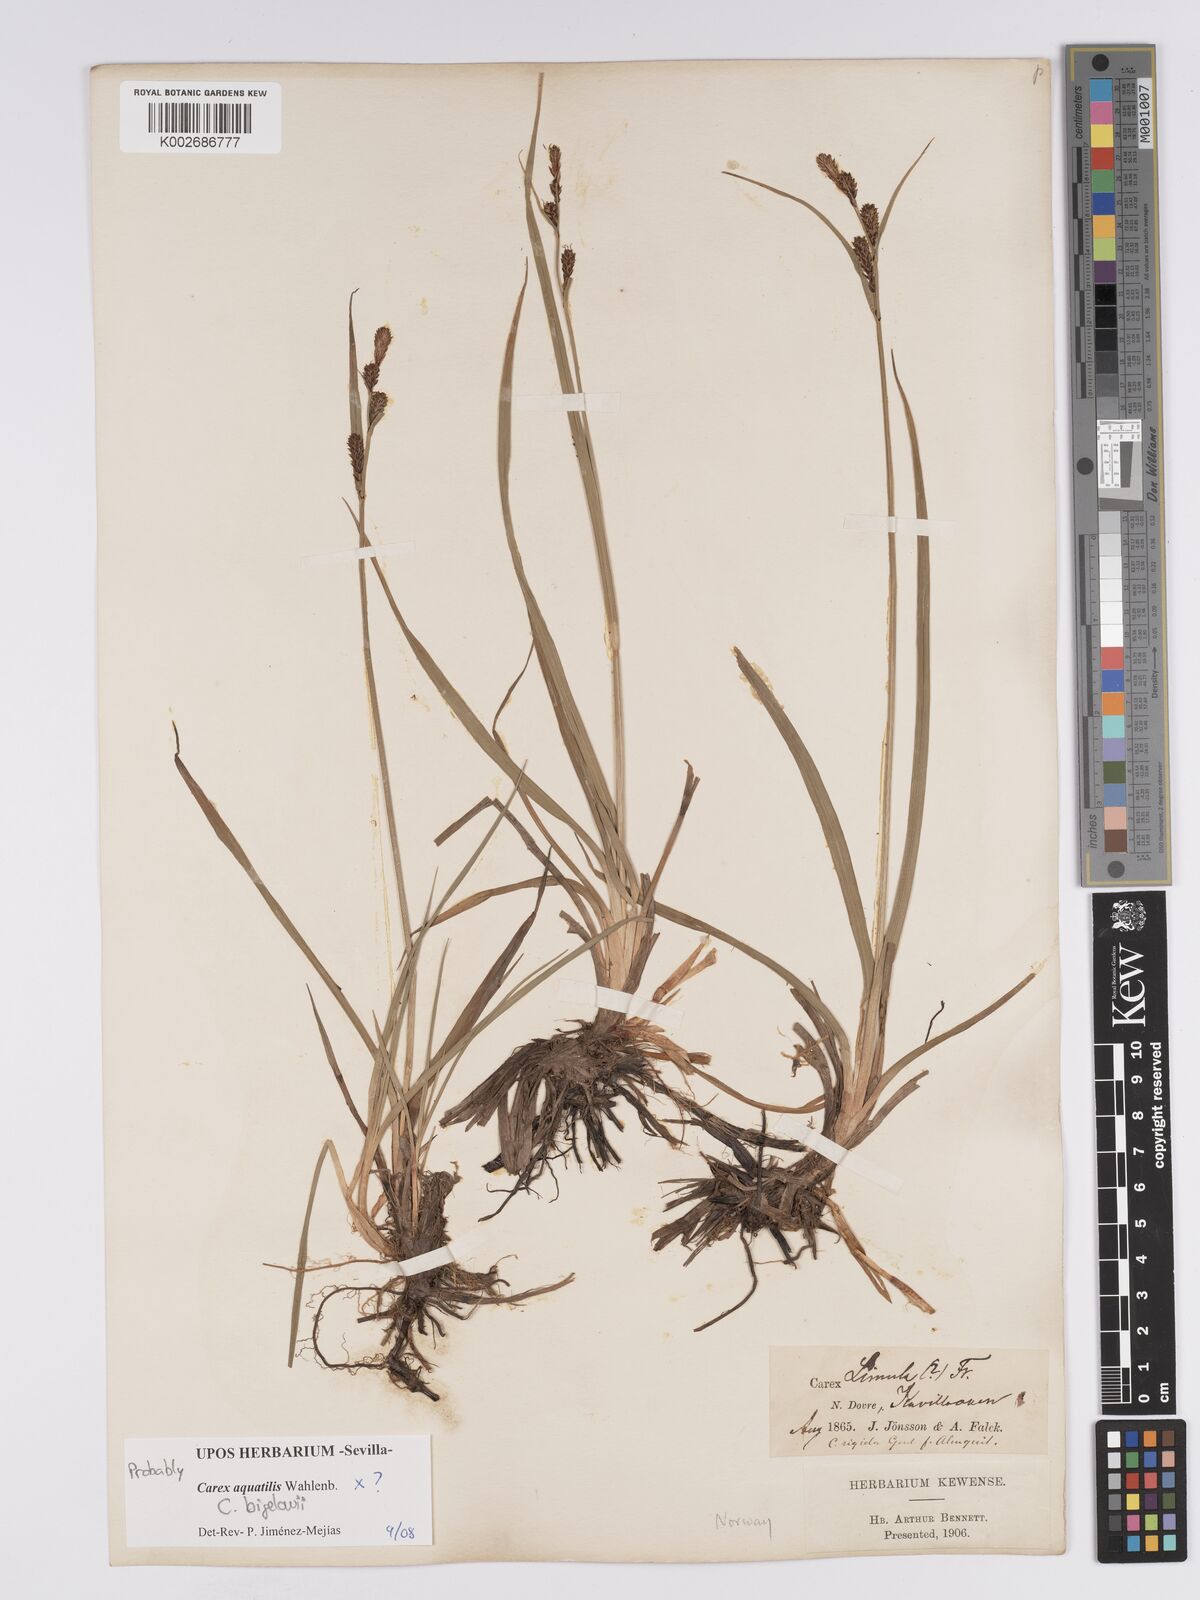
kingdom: Plantae
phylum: Tracheophyta
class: Liliopsida
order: Poales
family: Cyperaceae
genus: Carex
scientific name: Carex aquatilis
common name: Water sedge
